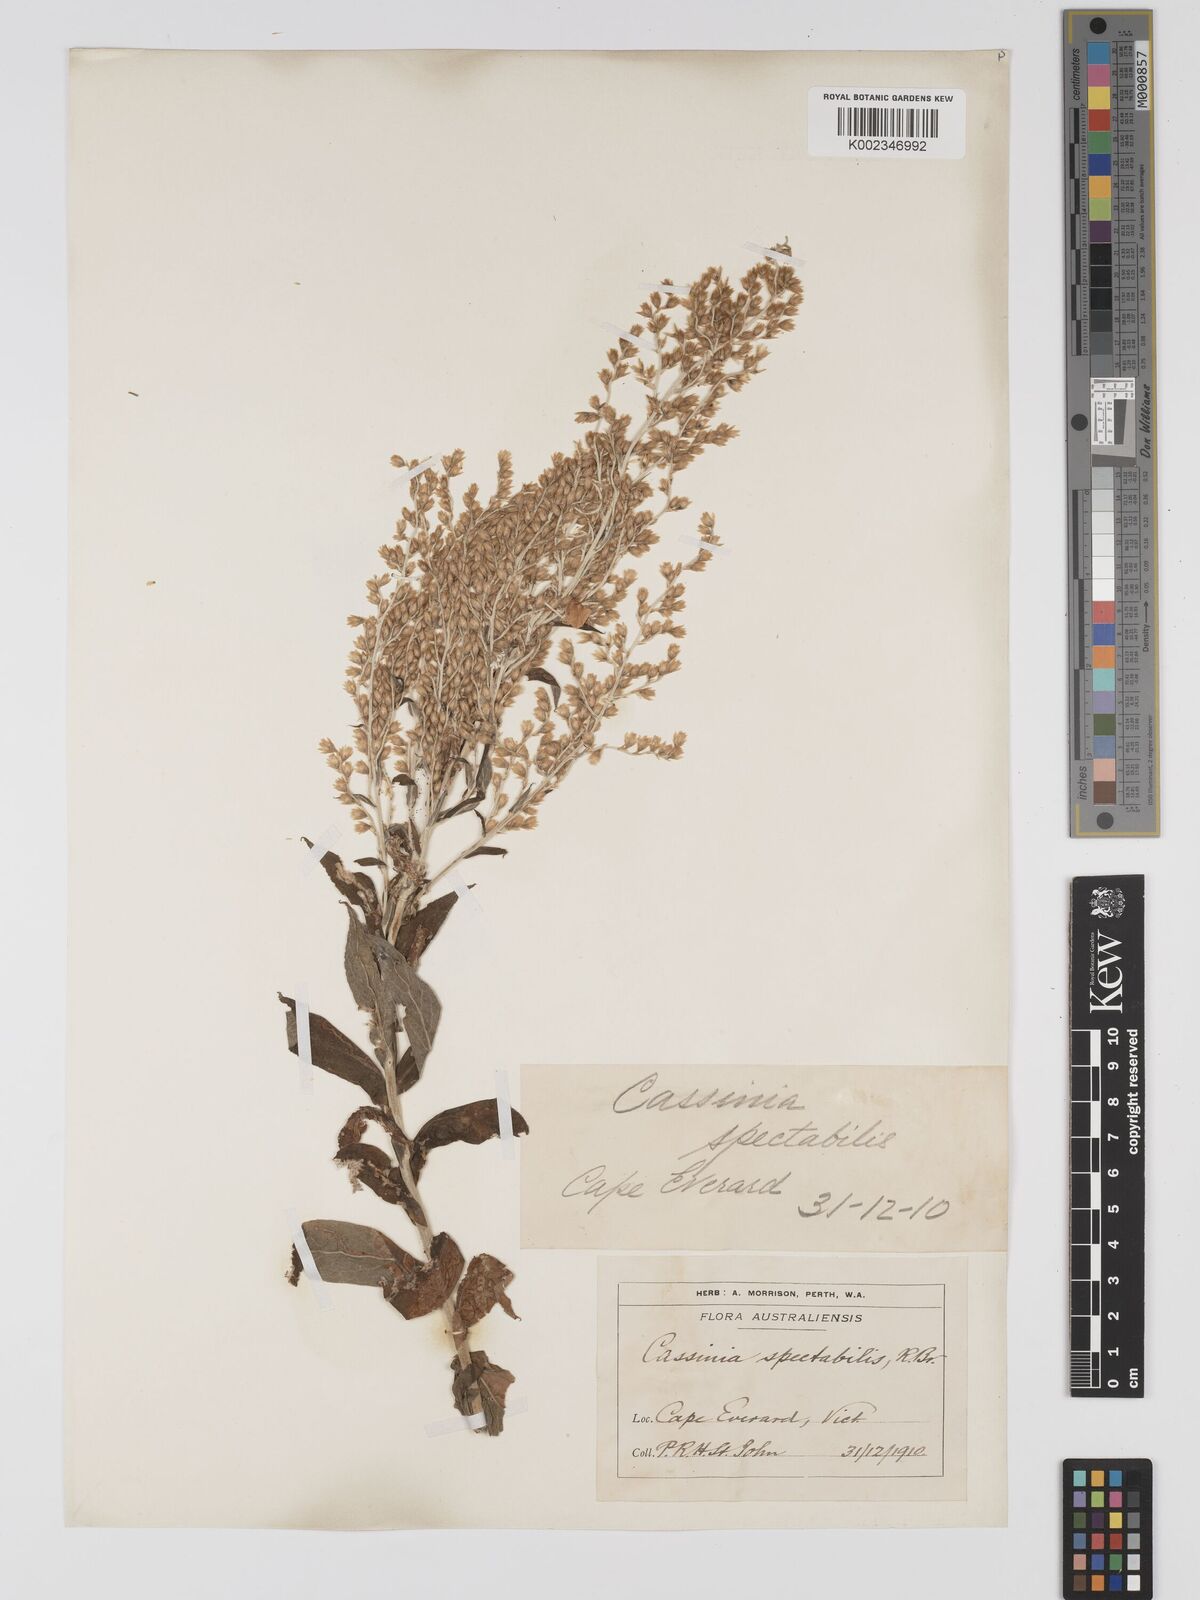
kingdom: Plantae
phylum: Tracheophyta
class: Magnoliopsida
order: Asterales
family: Asteraceae
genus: Apalochlamys
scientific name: Apalochlamys spectabilis
